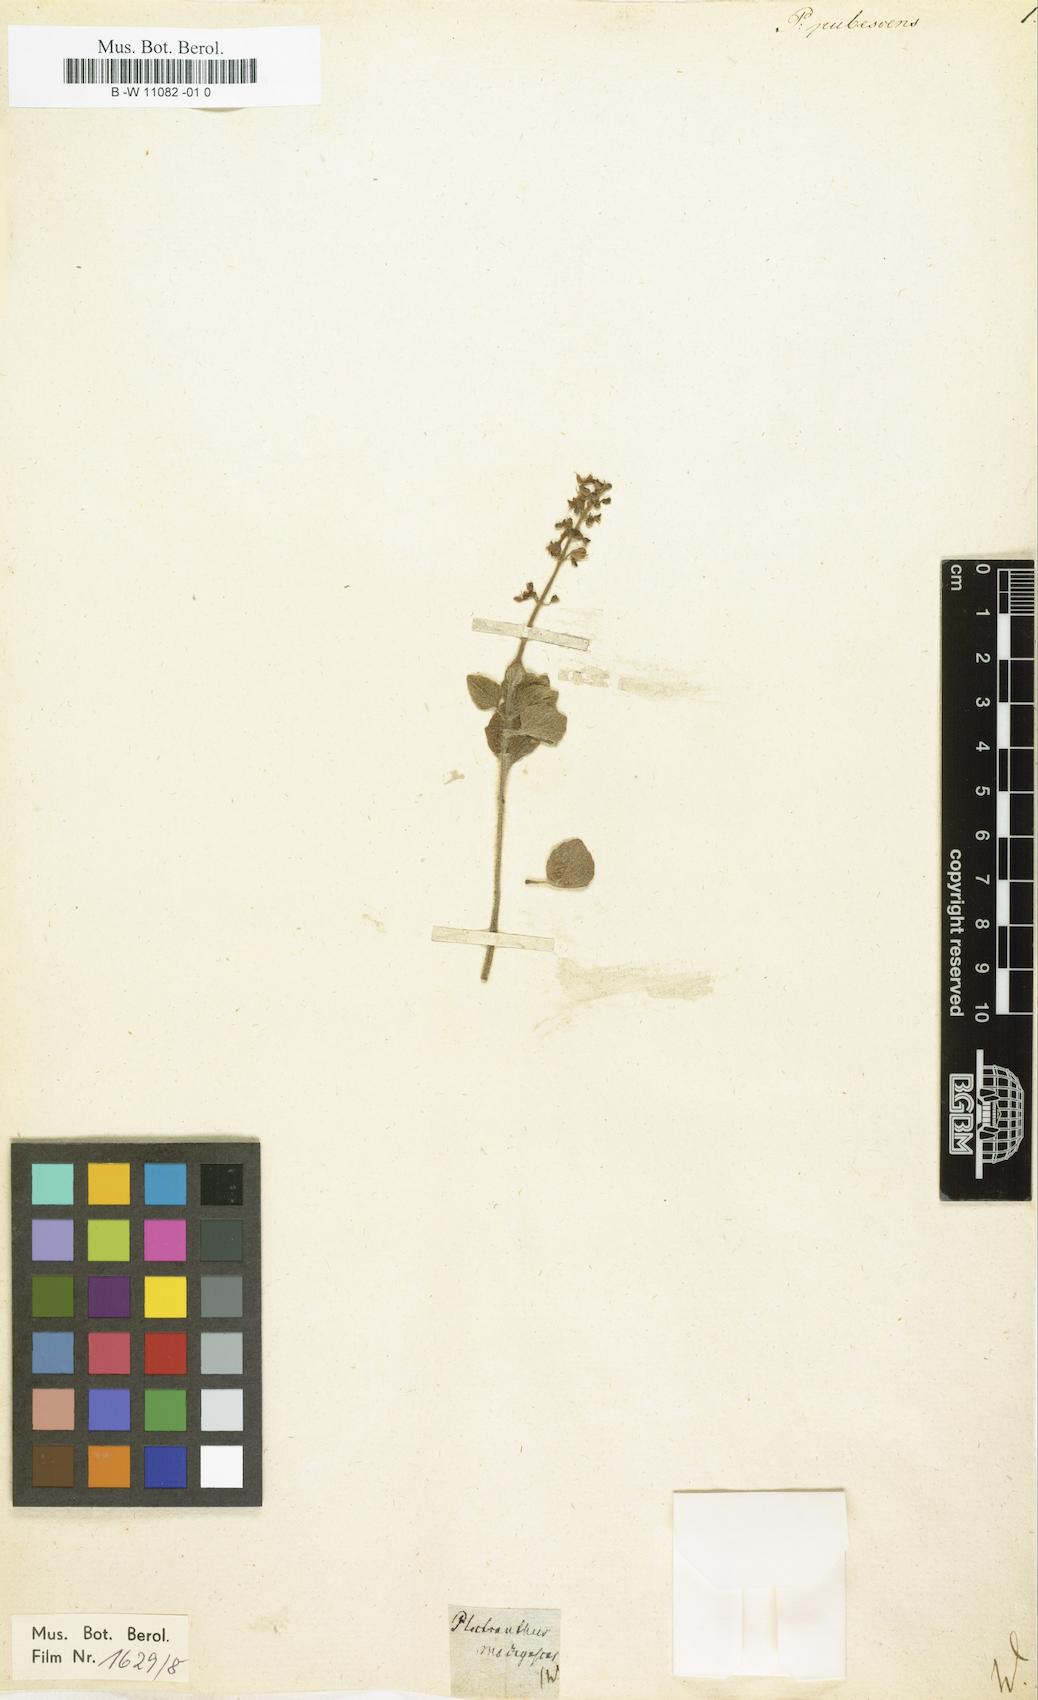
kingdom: Plantae
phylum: Tracheophyta
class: Magnoliopsida
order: Lamiales
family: Lamiaceae
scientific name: Lamiaceae
